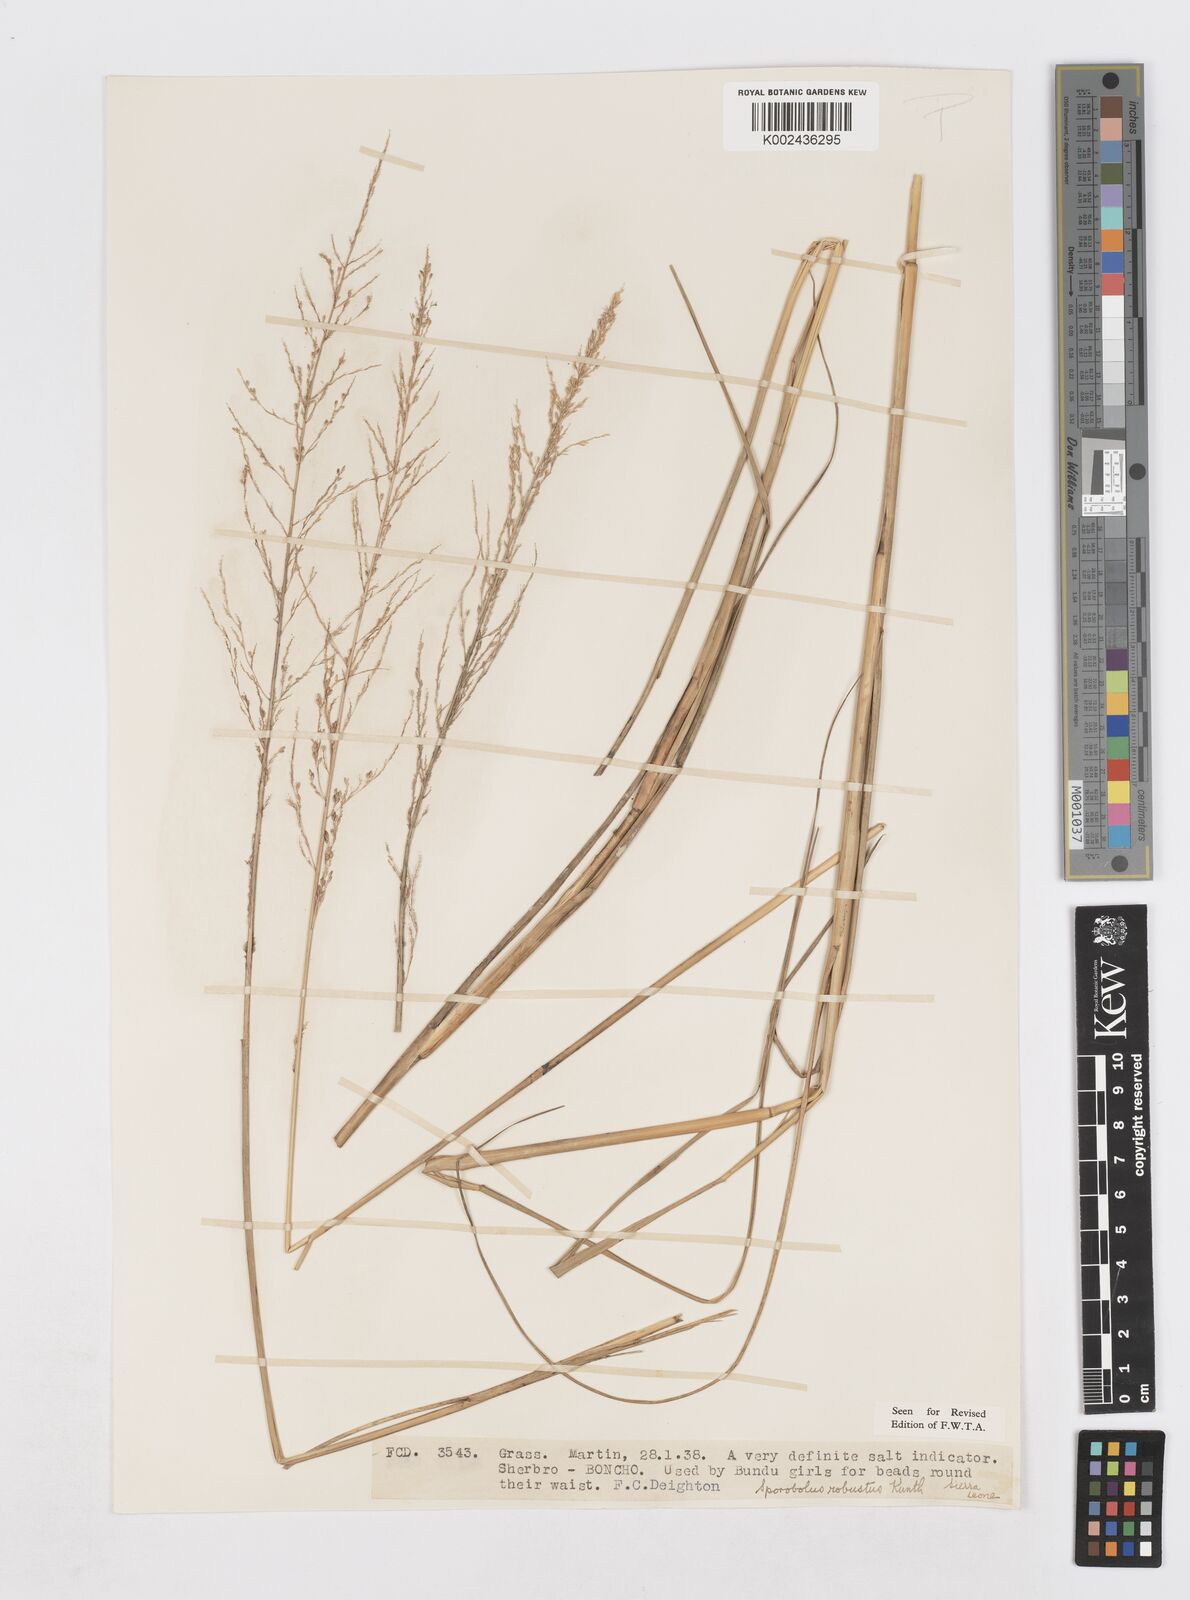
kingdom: Plantae
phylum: Tracheophyta
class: Liliopsida
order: Poales
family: Poaceae
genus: Sporobolus
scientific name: Sporobolus robustus
